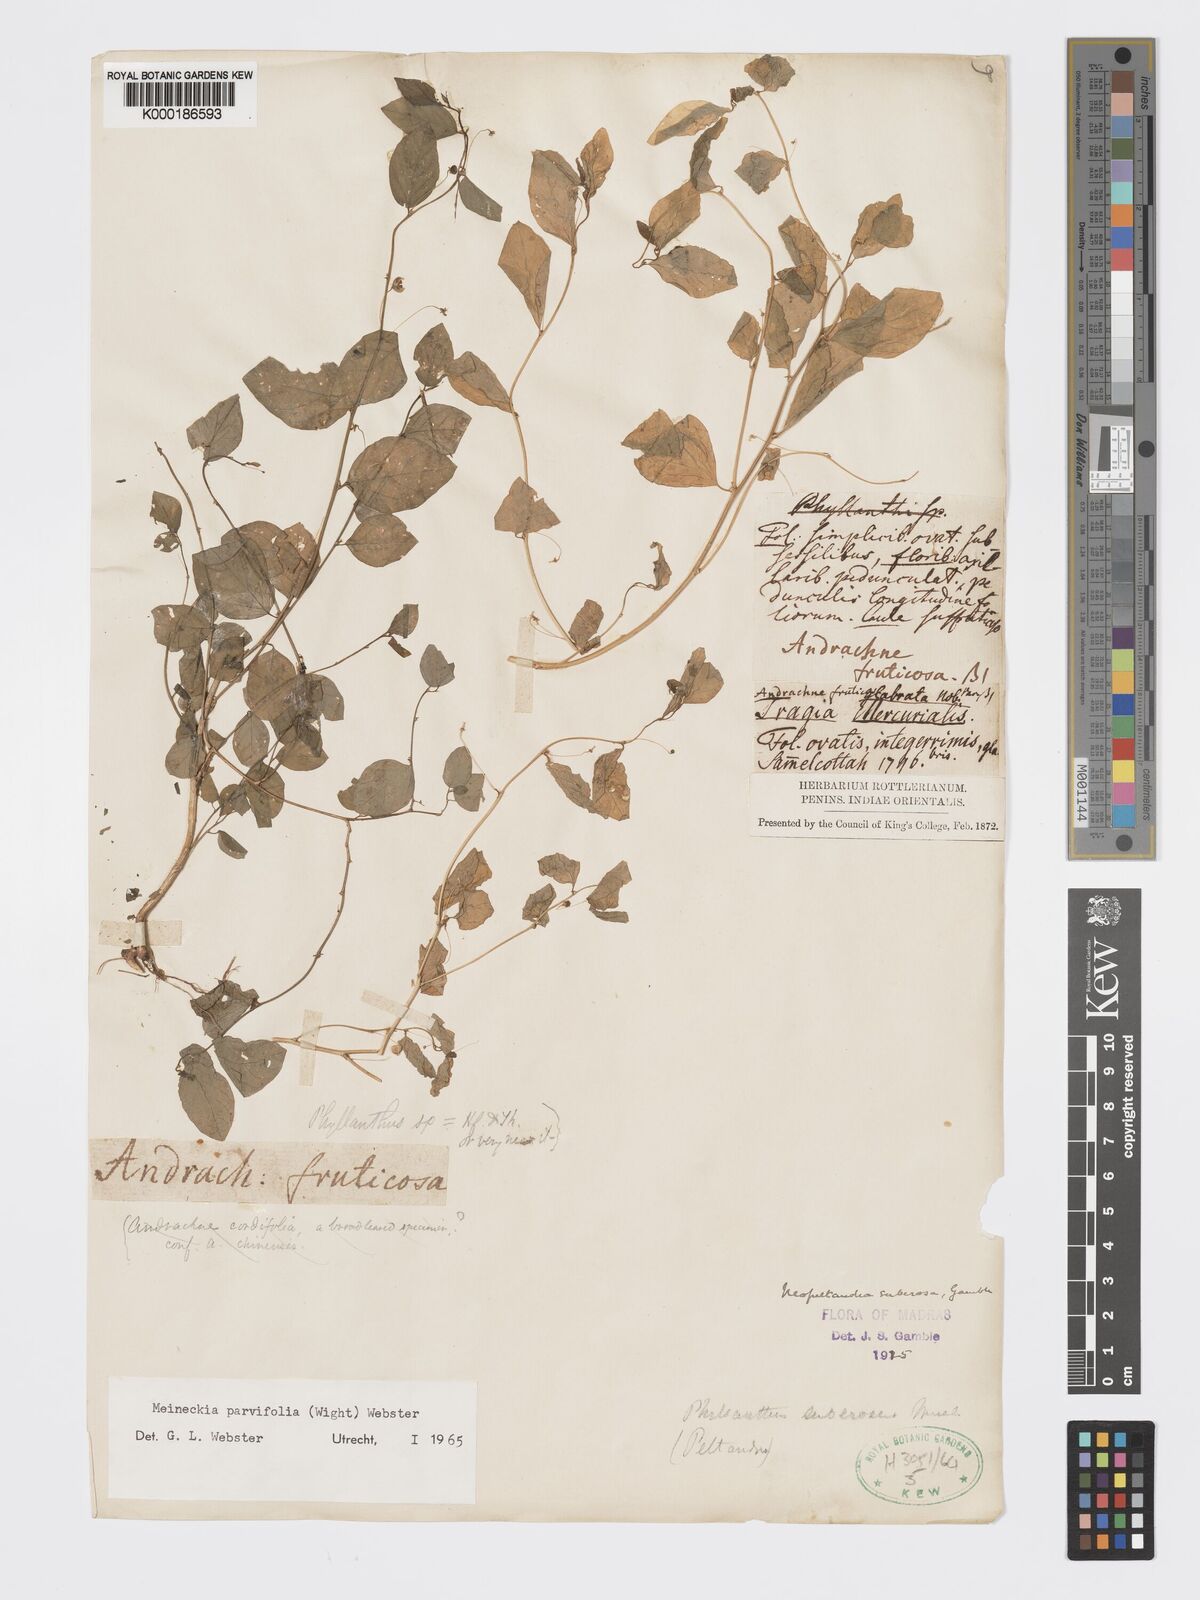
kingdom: Plantae
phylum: Tracheophyta
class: Magnoliopsida
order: Malpighiales
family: Phyllanthaceae
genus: Meineckia
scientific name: Meineckia parvifolia
